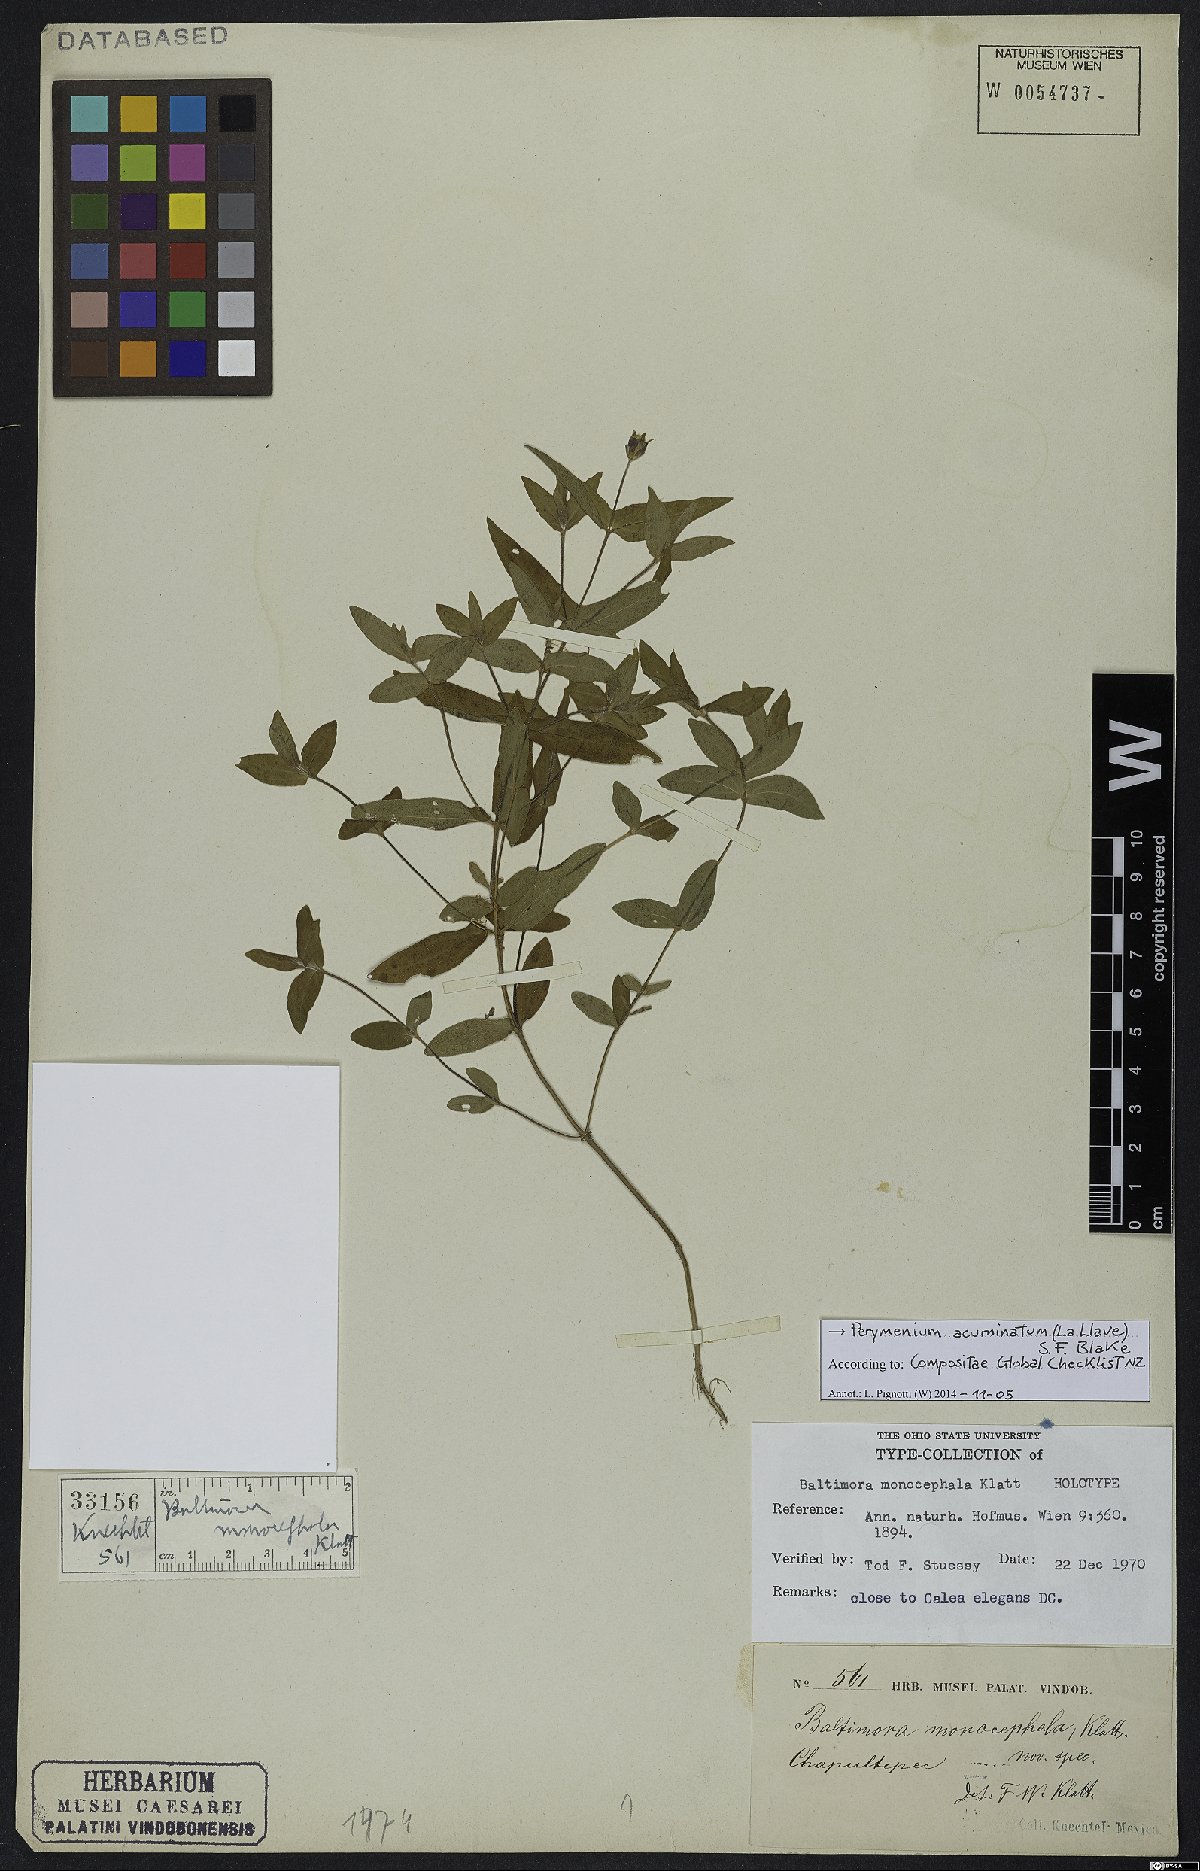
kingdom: Plantae
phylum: Tracheophyta
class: Magnoliopsida
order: Asterales
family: Asteraceae
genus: Oteiza
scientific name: Oteiza acuminata
